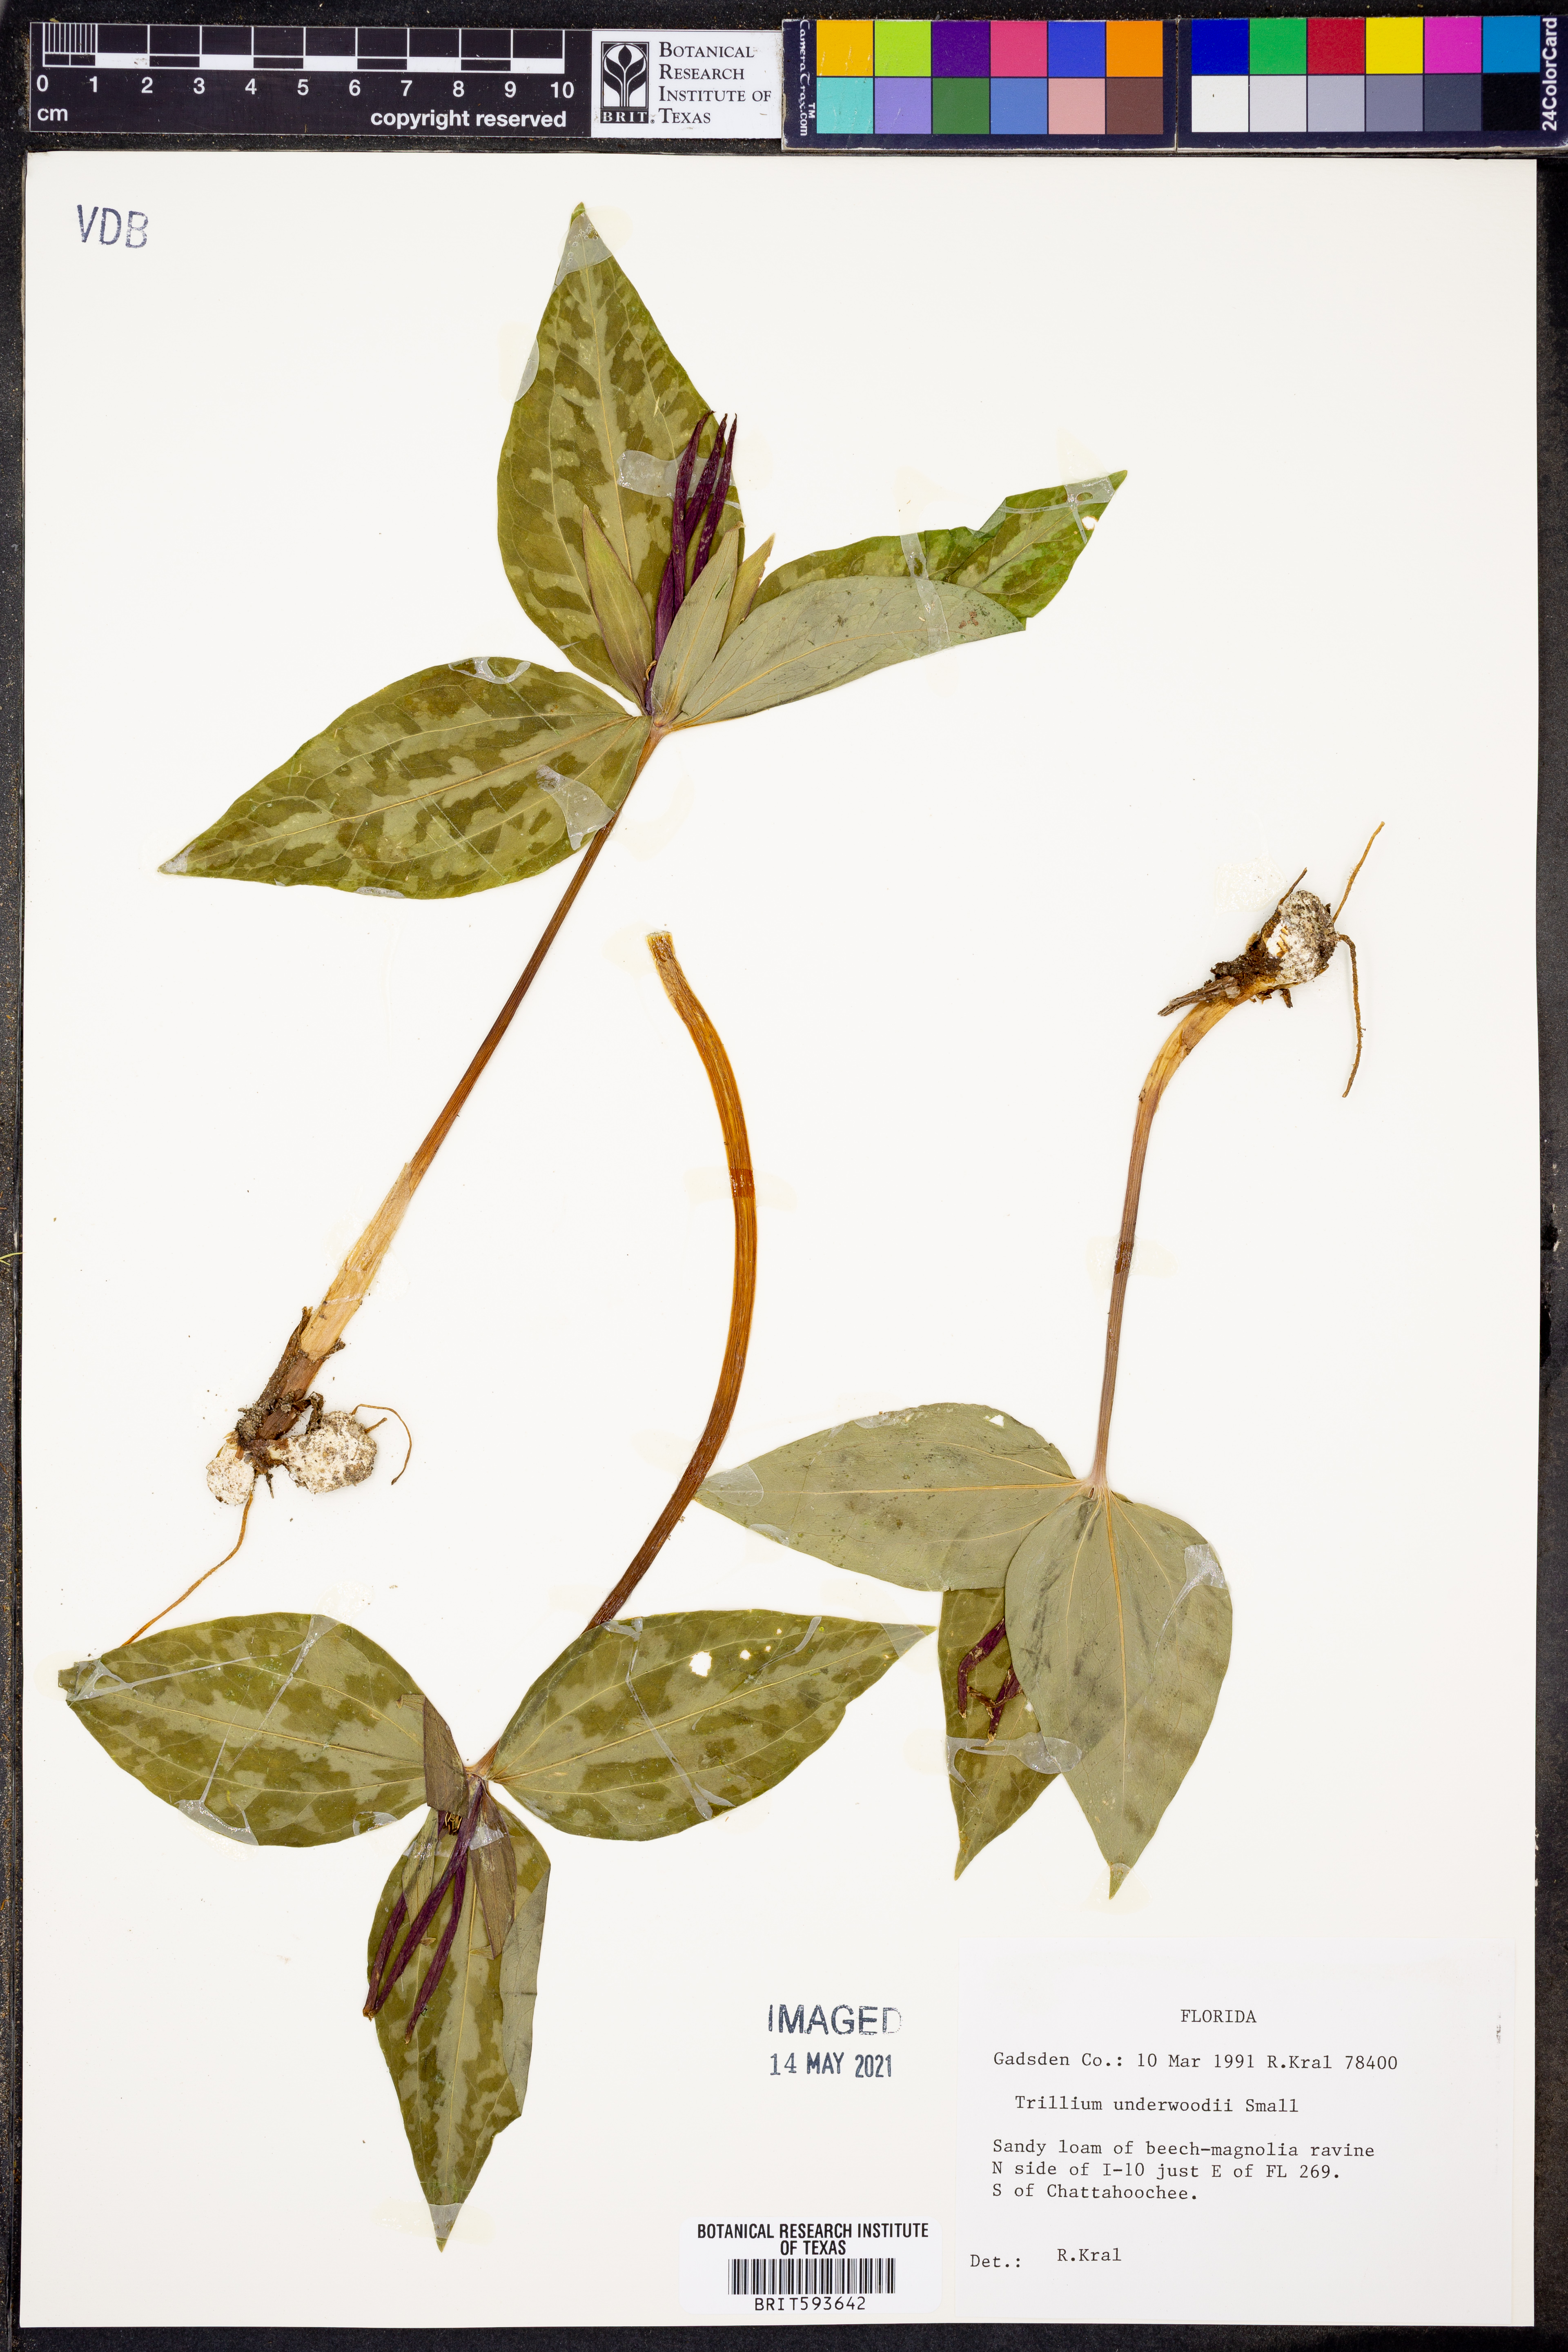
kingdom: Plantae
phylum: Tracheophyta
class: Liliopsida
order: Liliales
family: Melanthiaceae
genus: Trillium
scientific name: Trillium underwoodii
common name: Longbract wakerobin
